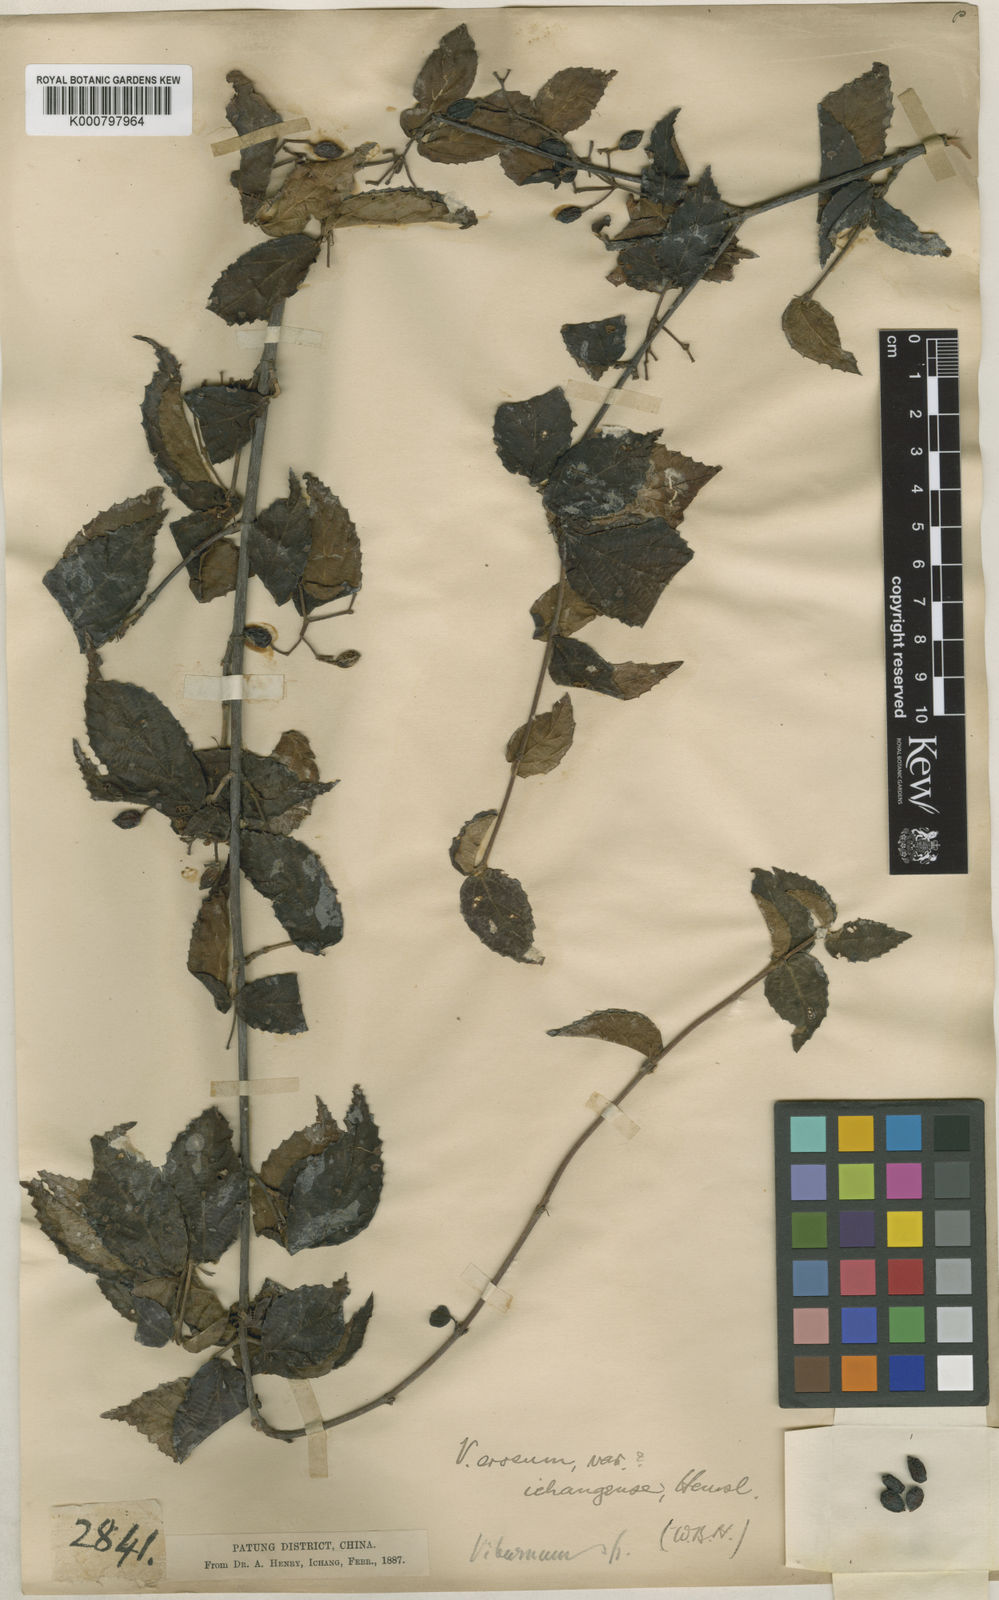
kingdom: Plantae
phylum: Tracheophyta
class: Magnoliopsida
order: Dipsacales
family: Viburnaceae
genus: Viburnum
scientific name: Viburnum erosum
